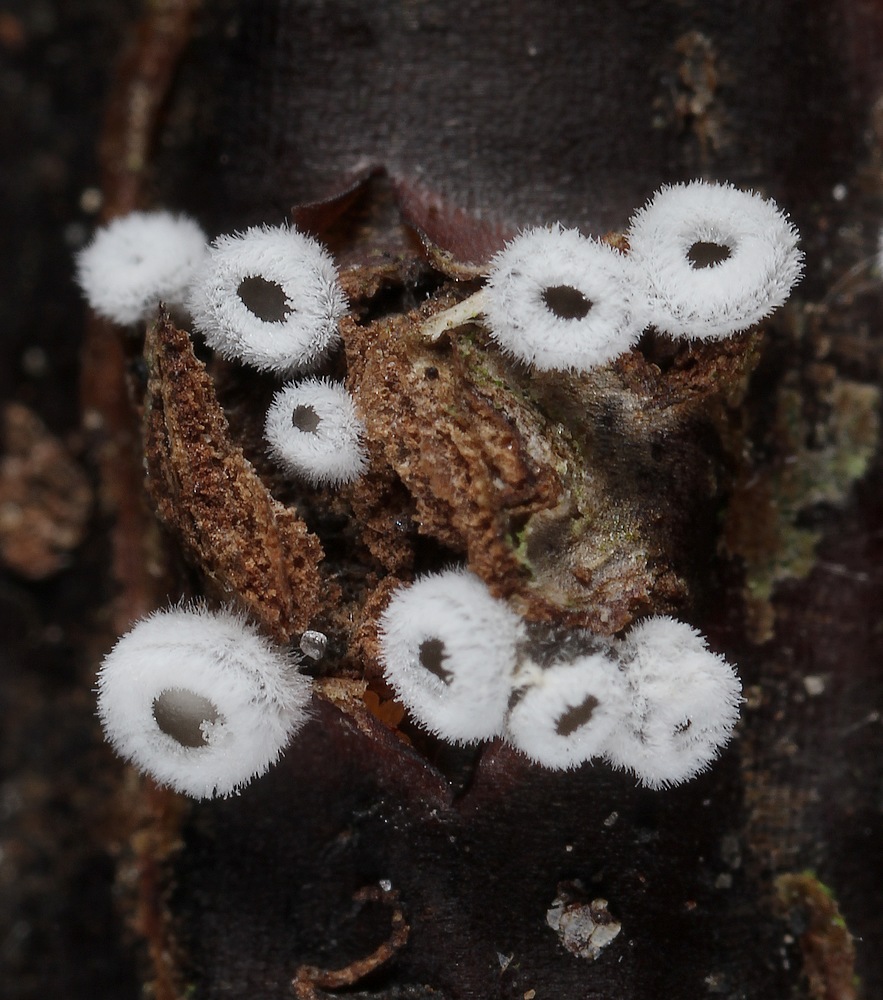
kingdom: Fungi
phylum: Basidiomycota
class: Agaricomycetes
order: Agaricales
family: Niaceae
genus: Lachnella
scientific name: Lachnella alboviolascens
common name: grå frynserede
